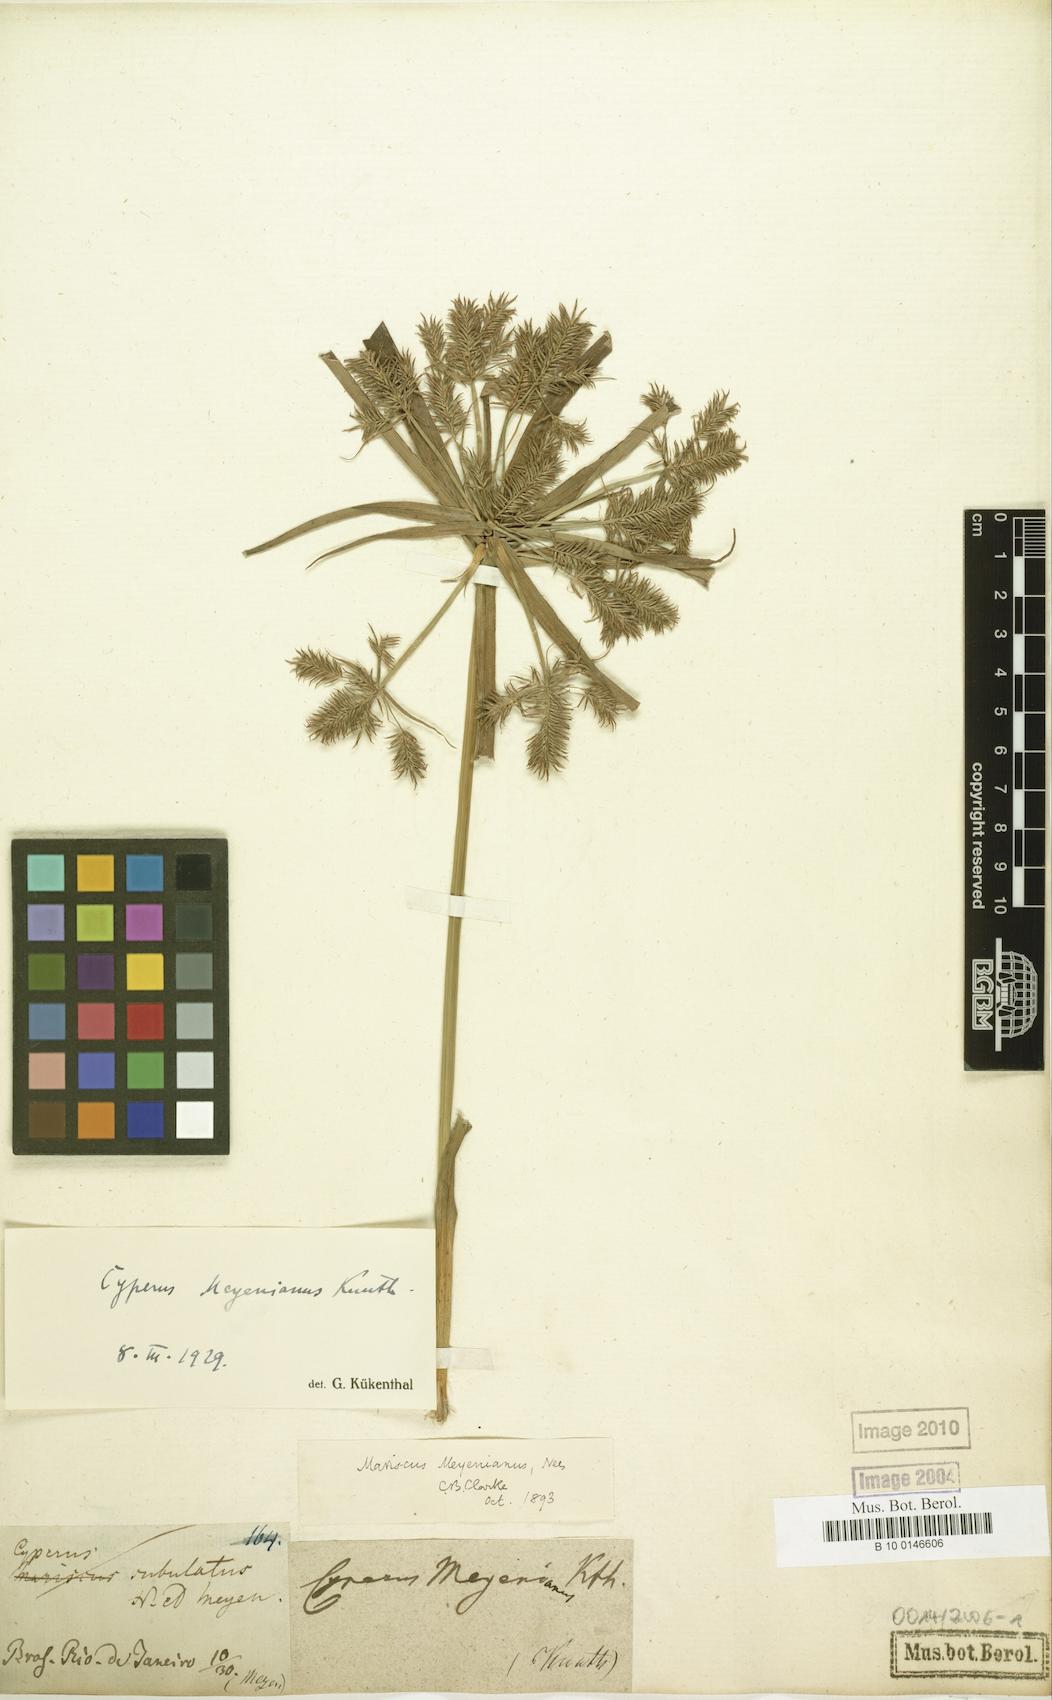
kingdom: Plantae
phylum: Tracheophyta
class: Liliopsida
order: Poales
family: Cyperaceae
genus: Cyperus
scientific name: Cyperus meyenianus
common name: Meyen's flatsedge
